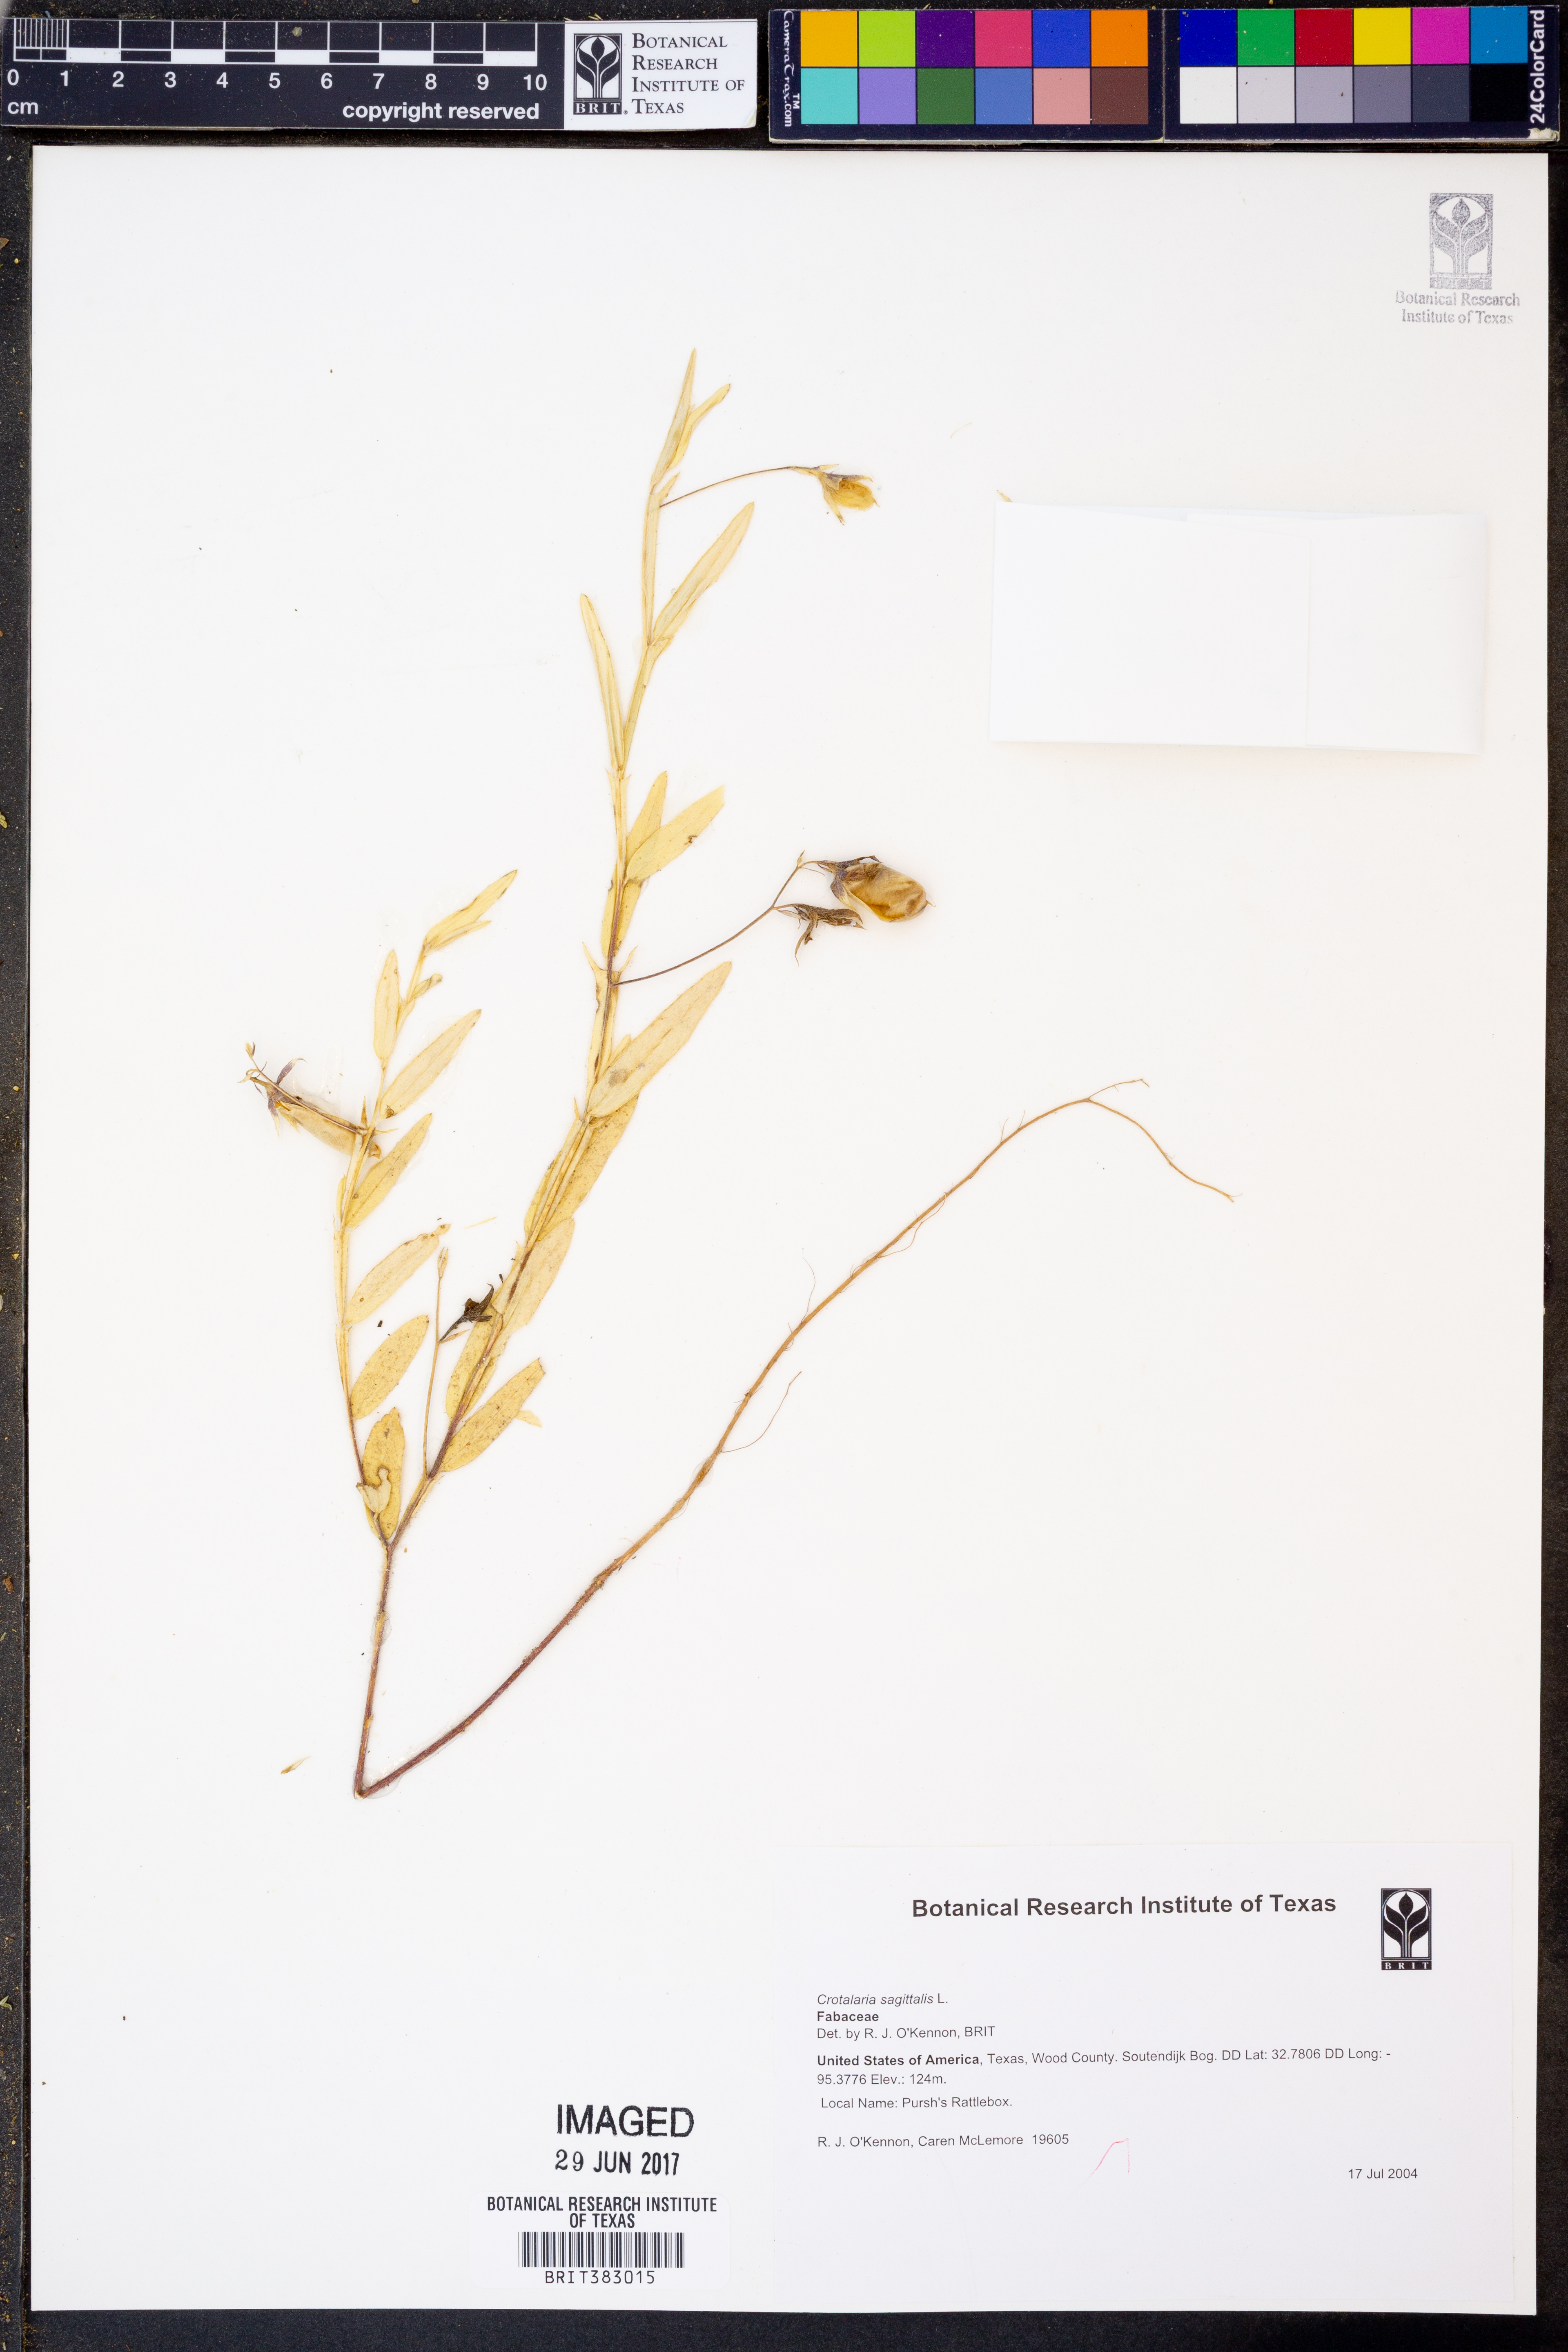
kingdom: Plantae
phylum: Tracheophyta
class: Magnoliopsida
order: Fabales
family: Fabaceae
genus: Crotalaria
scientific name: Crotalaria sagittalis
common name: Arrowhead rattlebox
